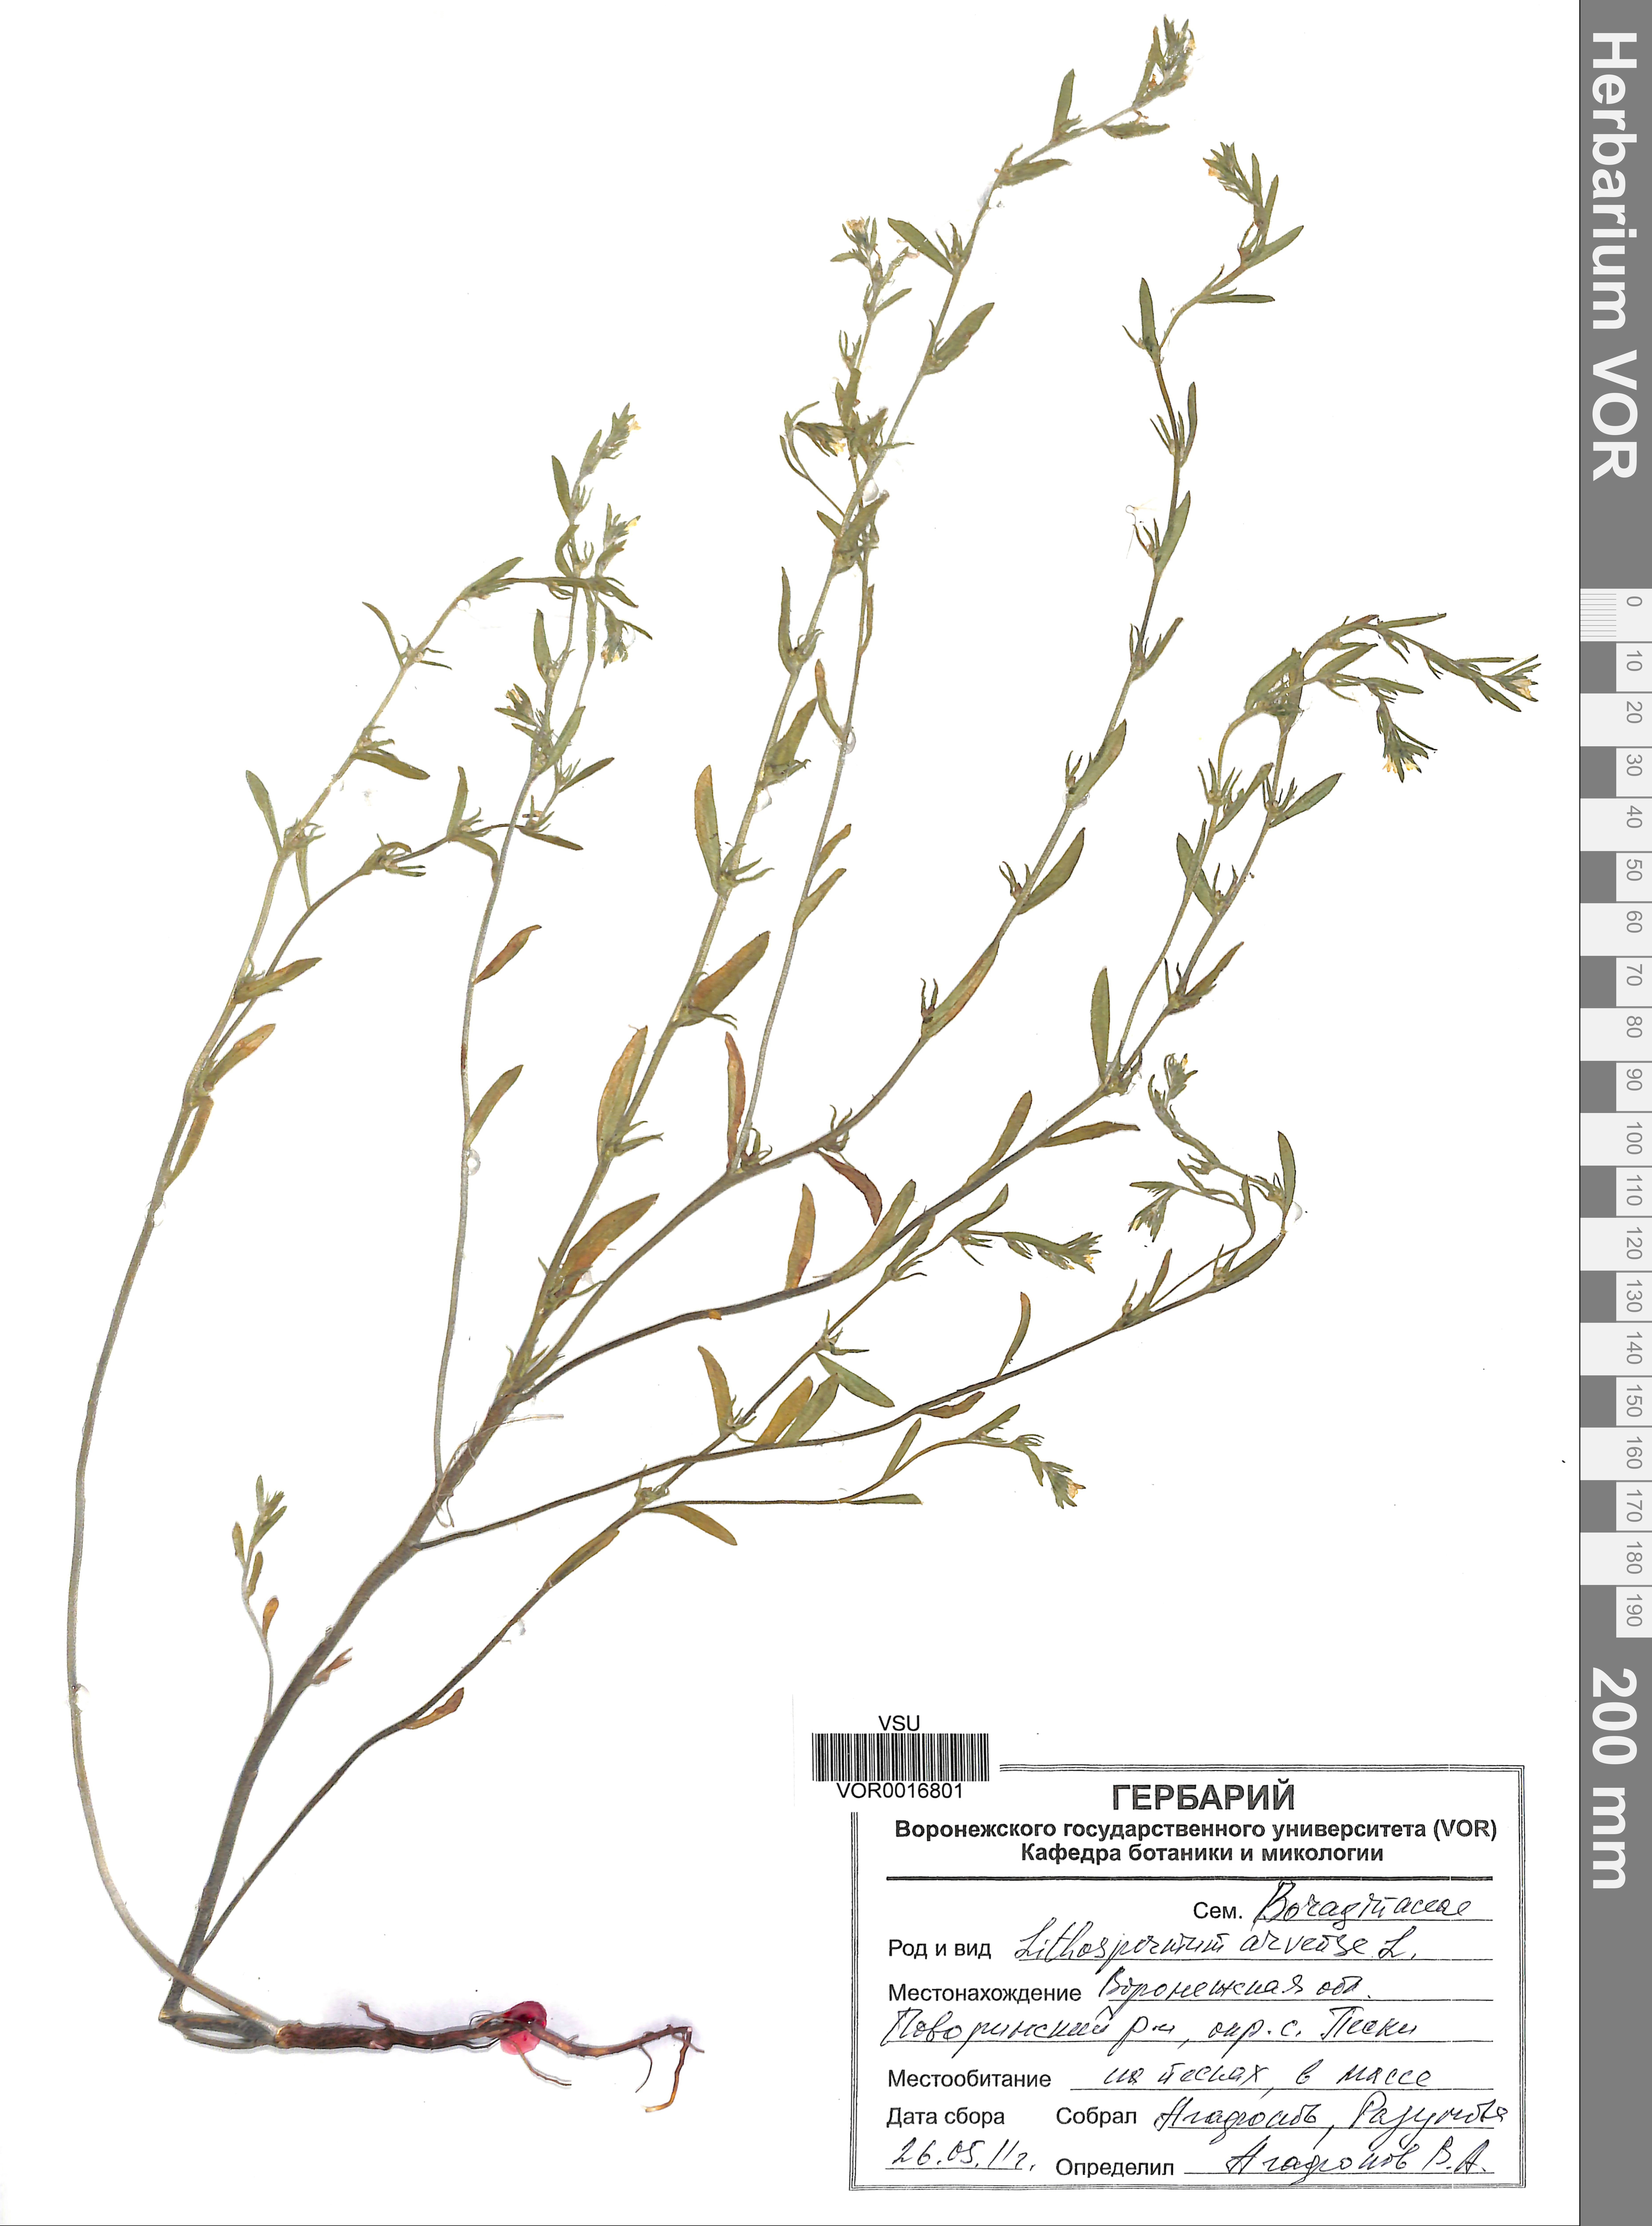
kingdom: Plantae
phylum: Tracheophyta
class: Magnoliopsida
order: Boraginales
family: Boraginaceae
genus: Buglossoides
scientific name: Buglossoides arvensis
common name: Corn gromwell
